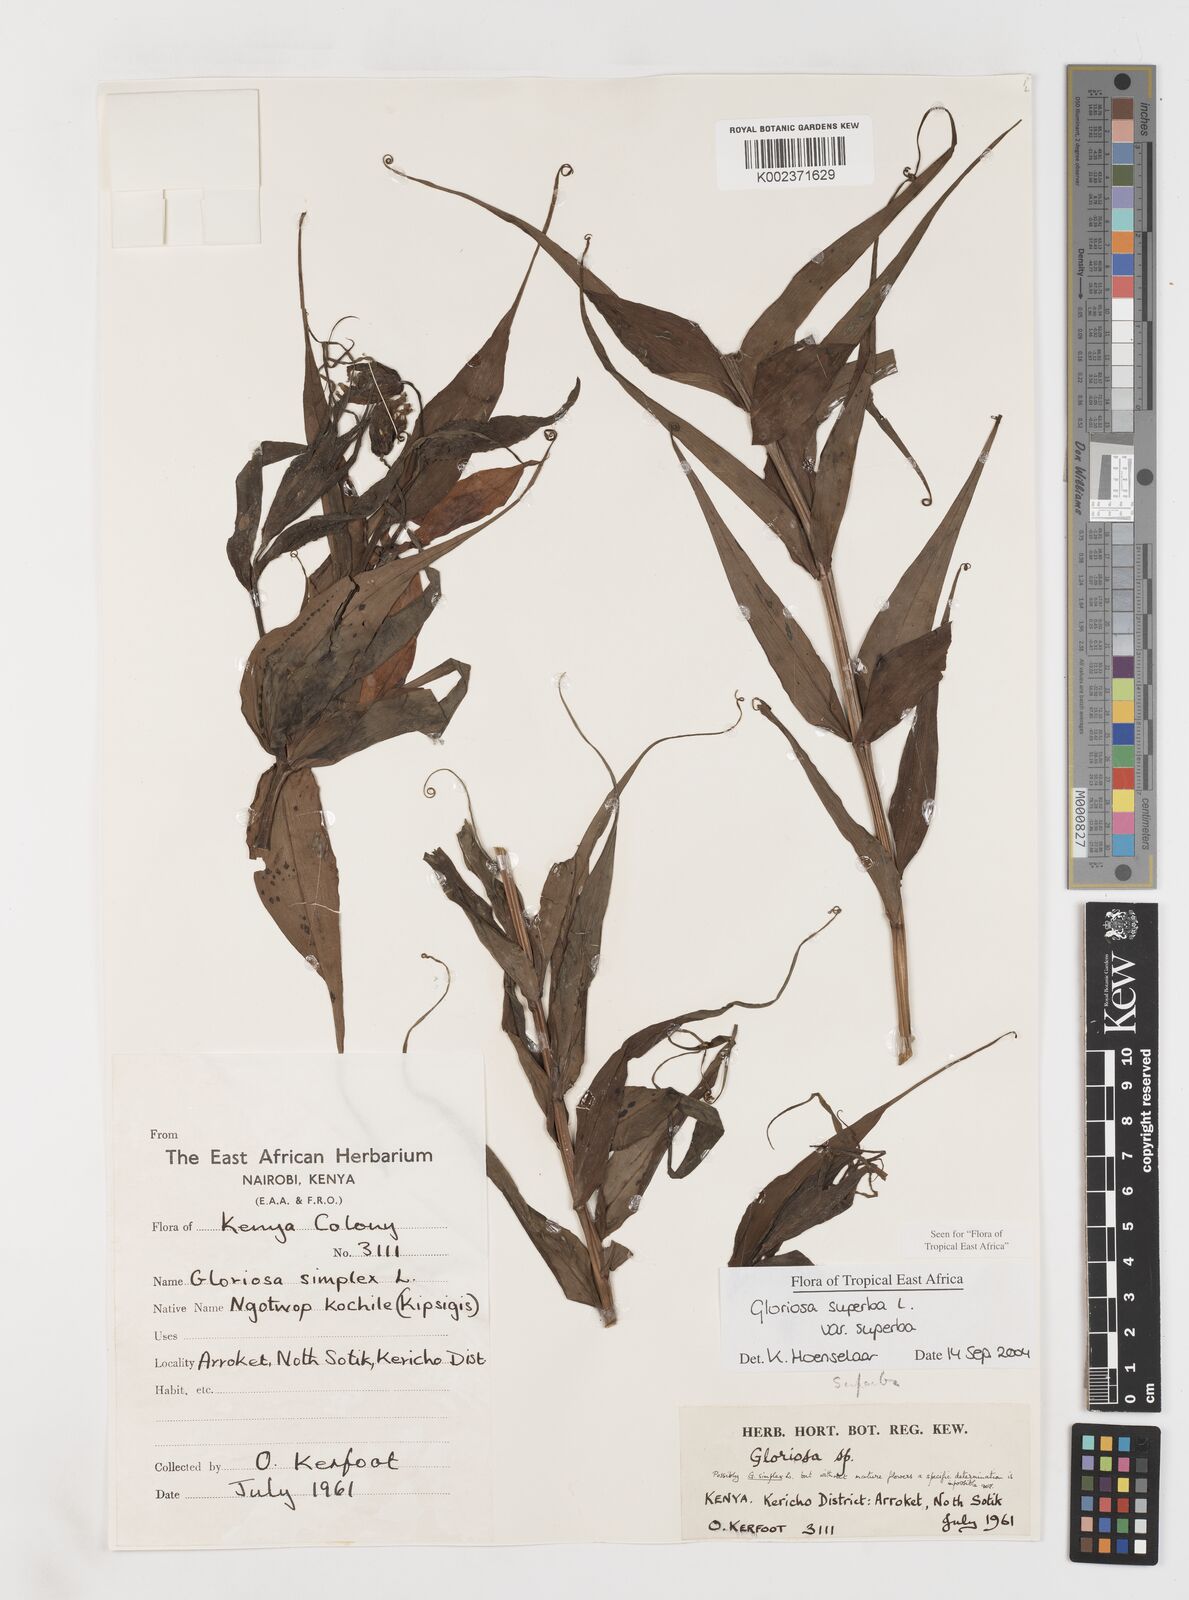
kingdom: Plantae
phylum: Tracheophyta
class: Liliopsida
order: Liliales
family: Colchicaceae
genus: Gloriosa
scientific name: Gloriosa simplex
